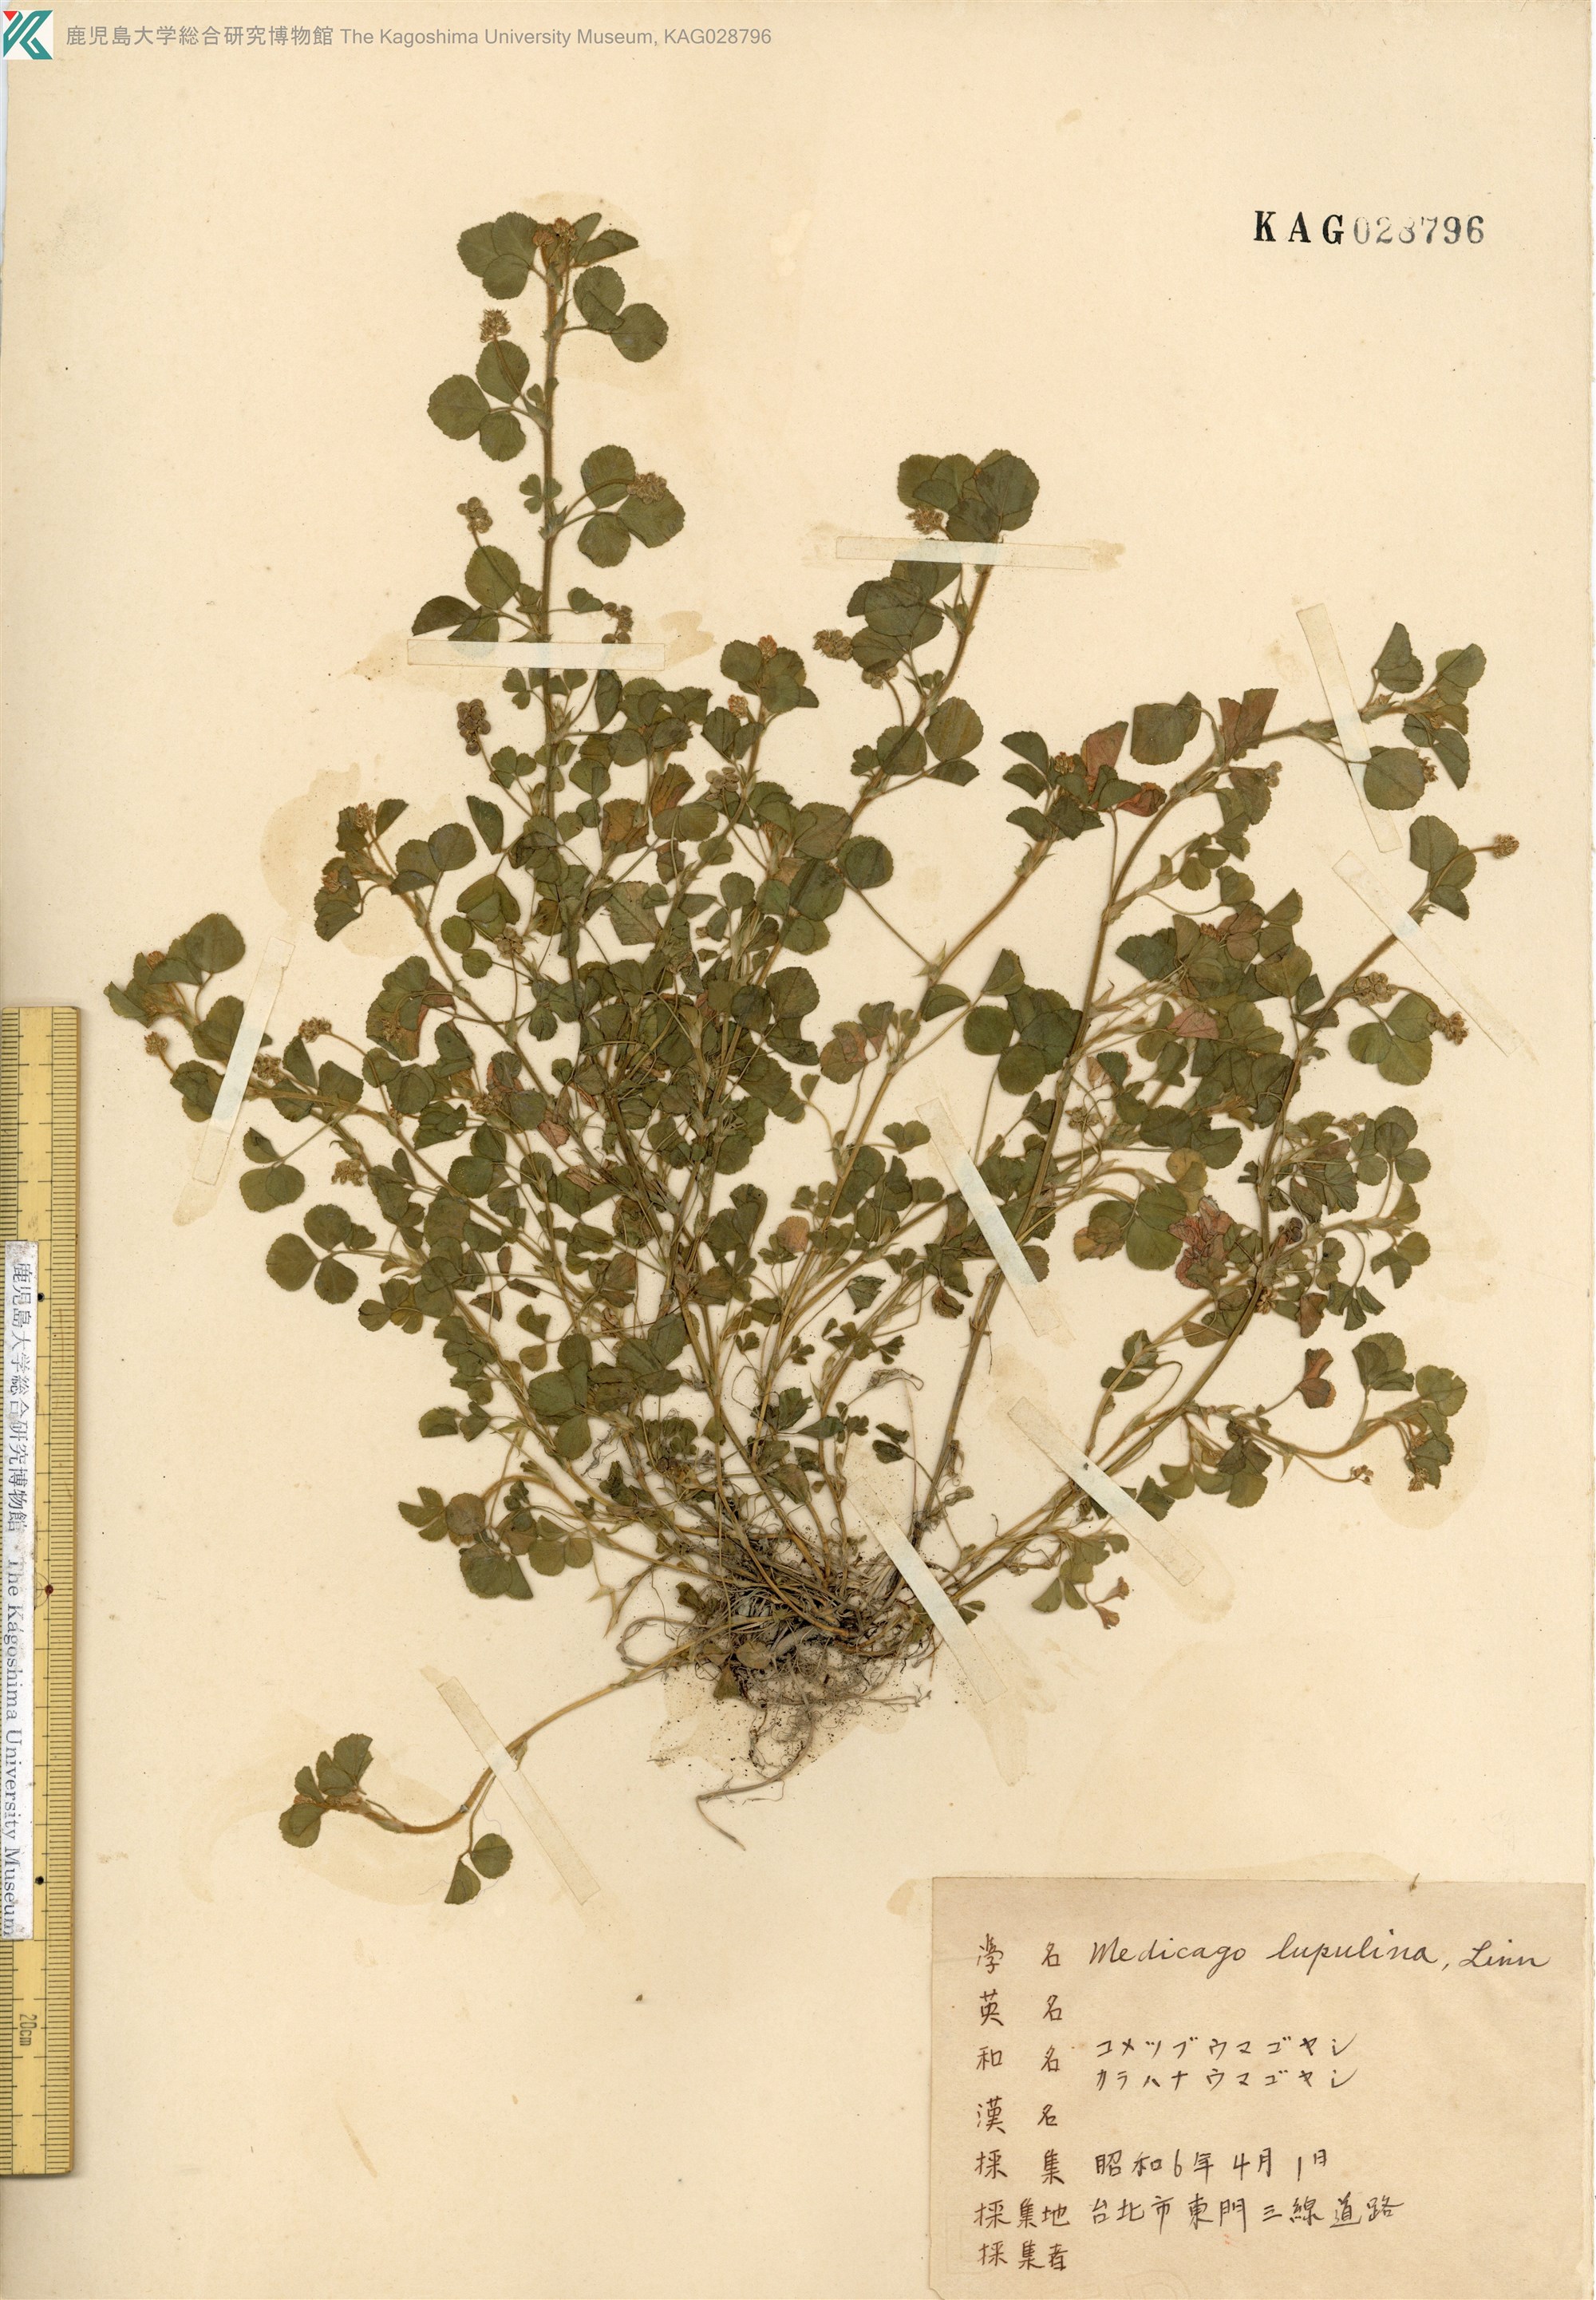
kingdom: Plantae
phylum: Tracheophyta
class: Magnoliopsida
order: Fabales
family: Fabaceae
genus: Medicago
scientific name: Medicago lupulina
